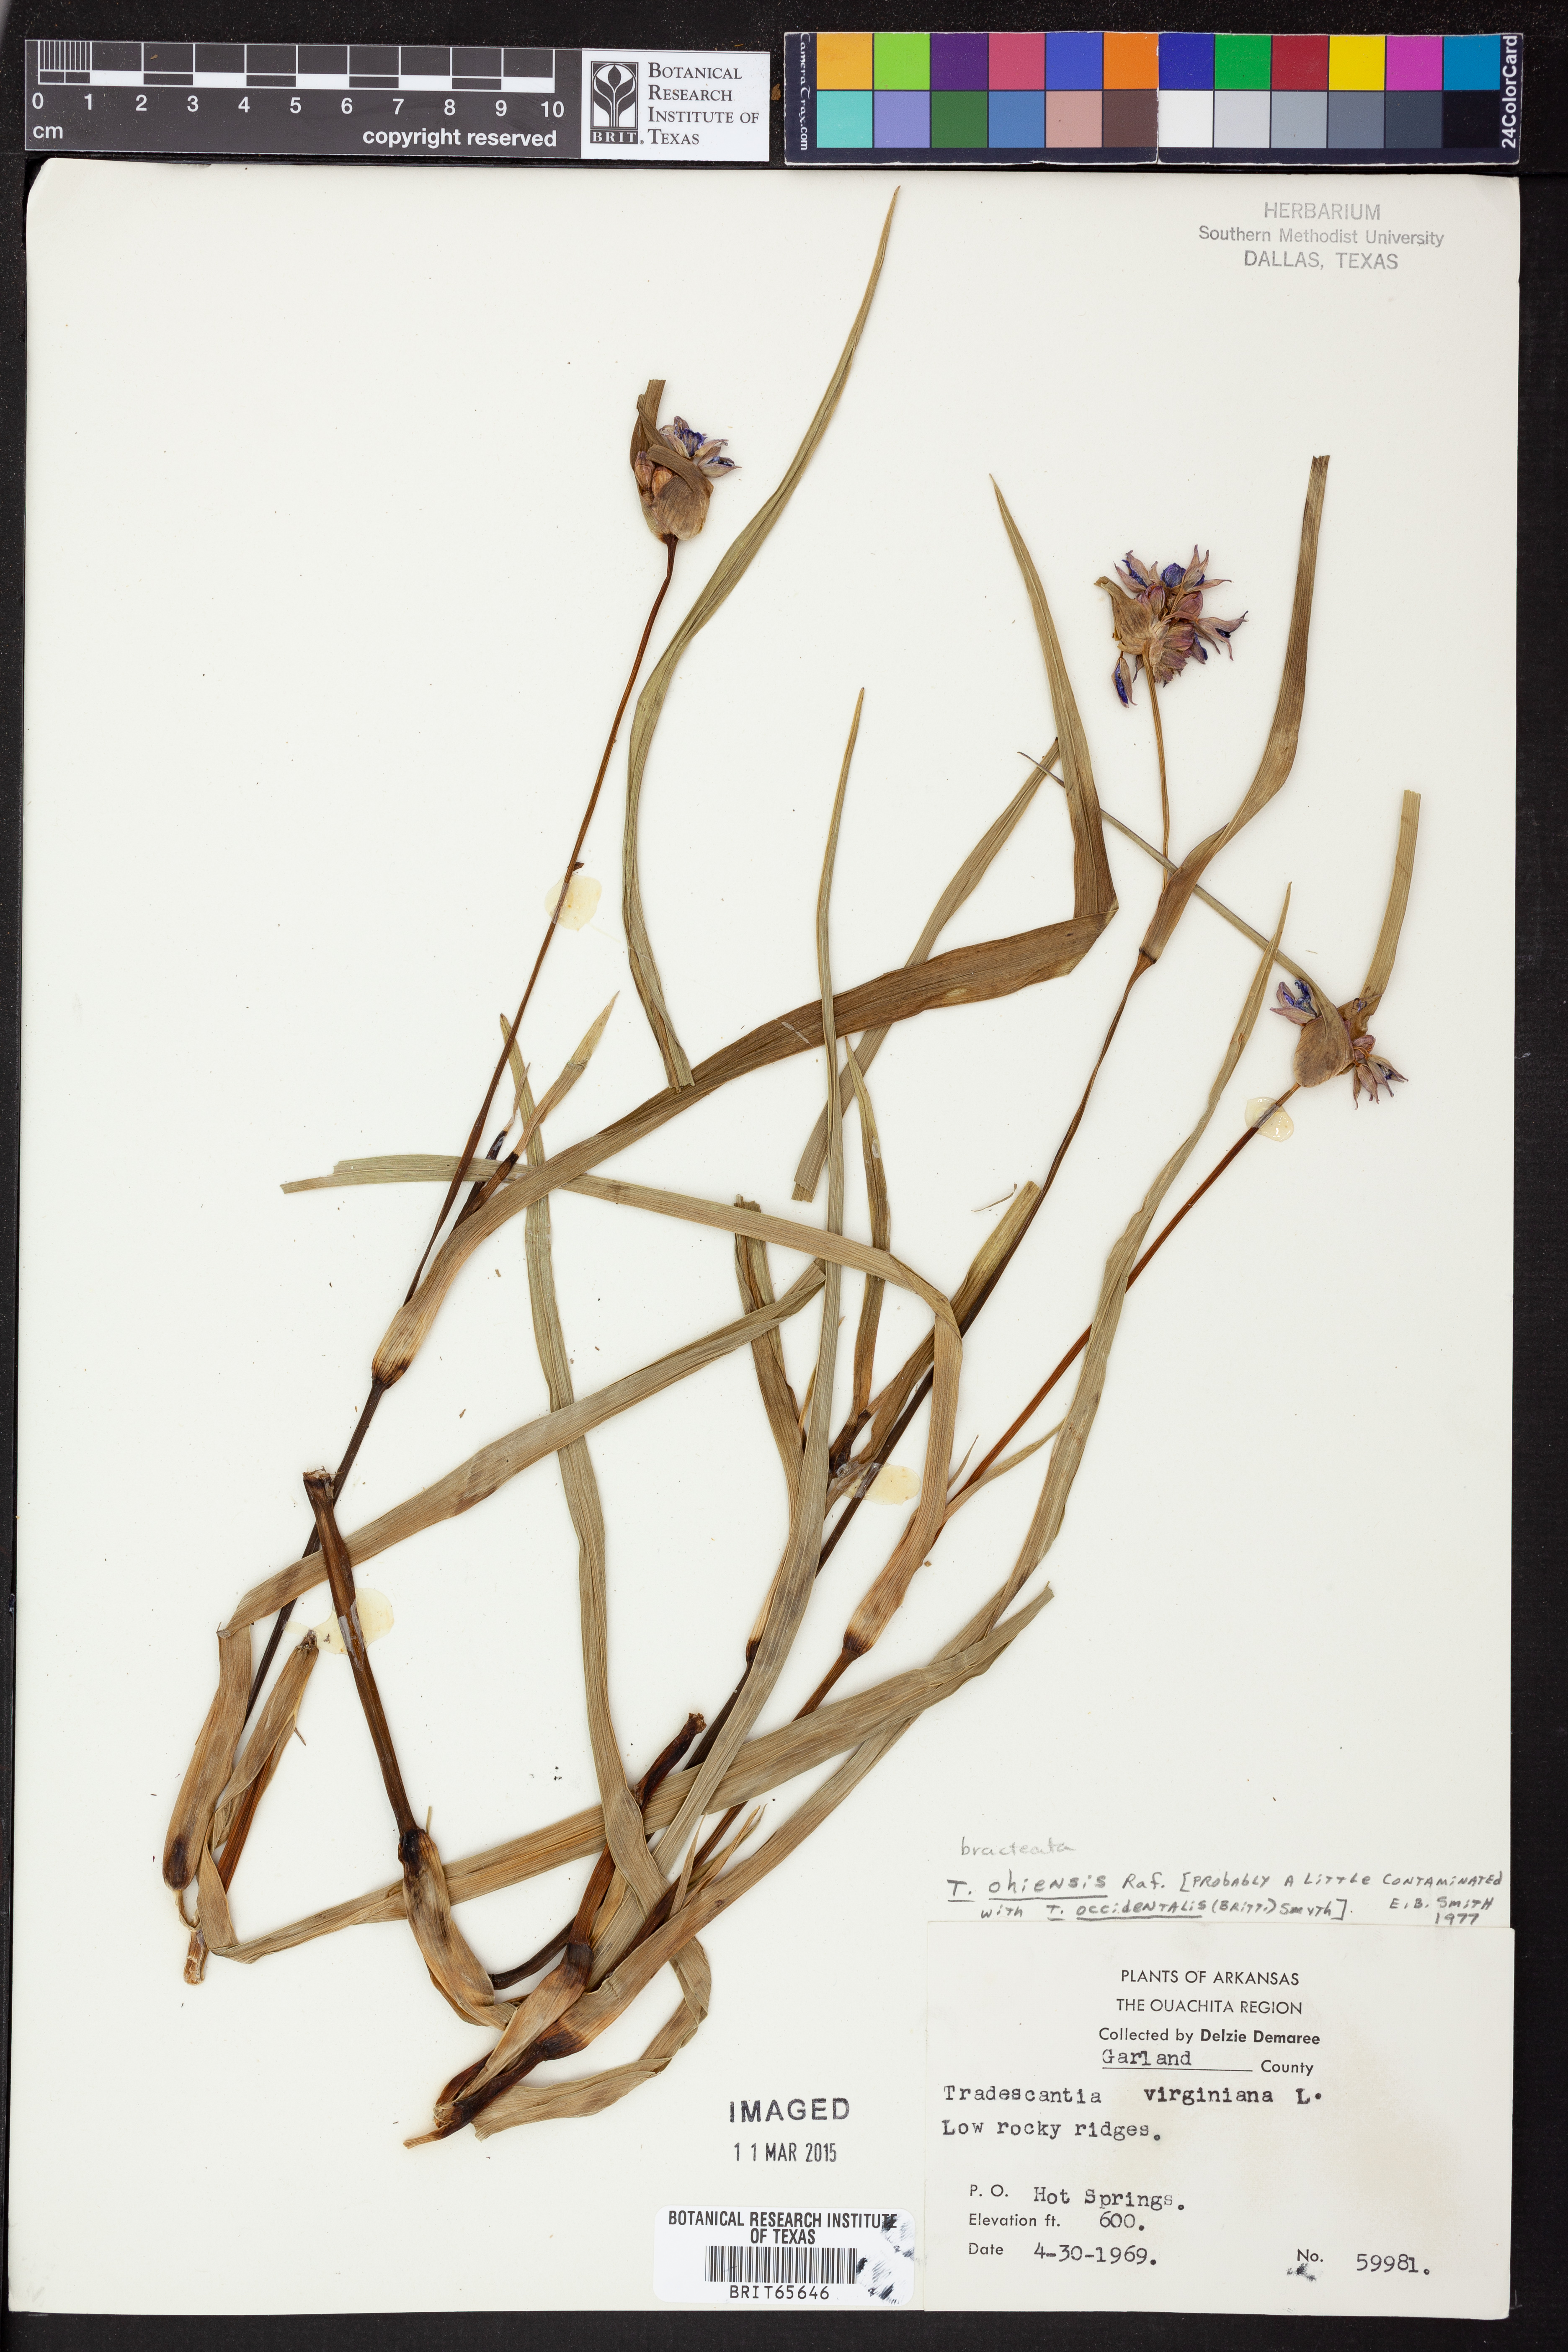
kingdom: Plantae
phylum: Tracheophyta
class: Liliopsida
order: Commelinales
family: Commelinaceae
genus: Tradescantia
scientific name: Tradescantia ohiensis
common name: Ohio spiderwort
